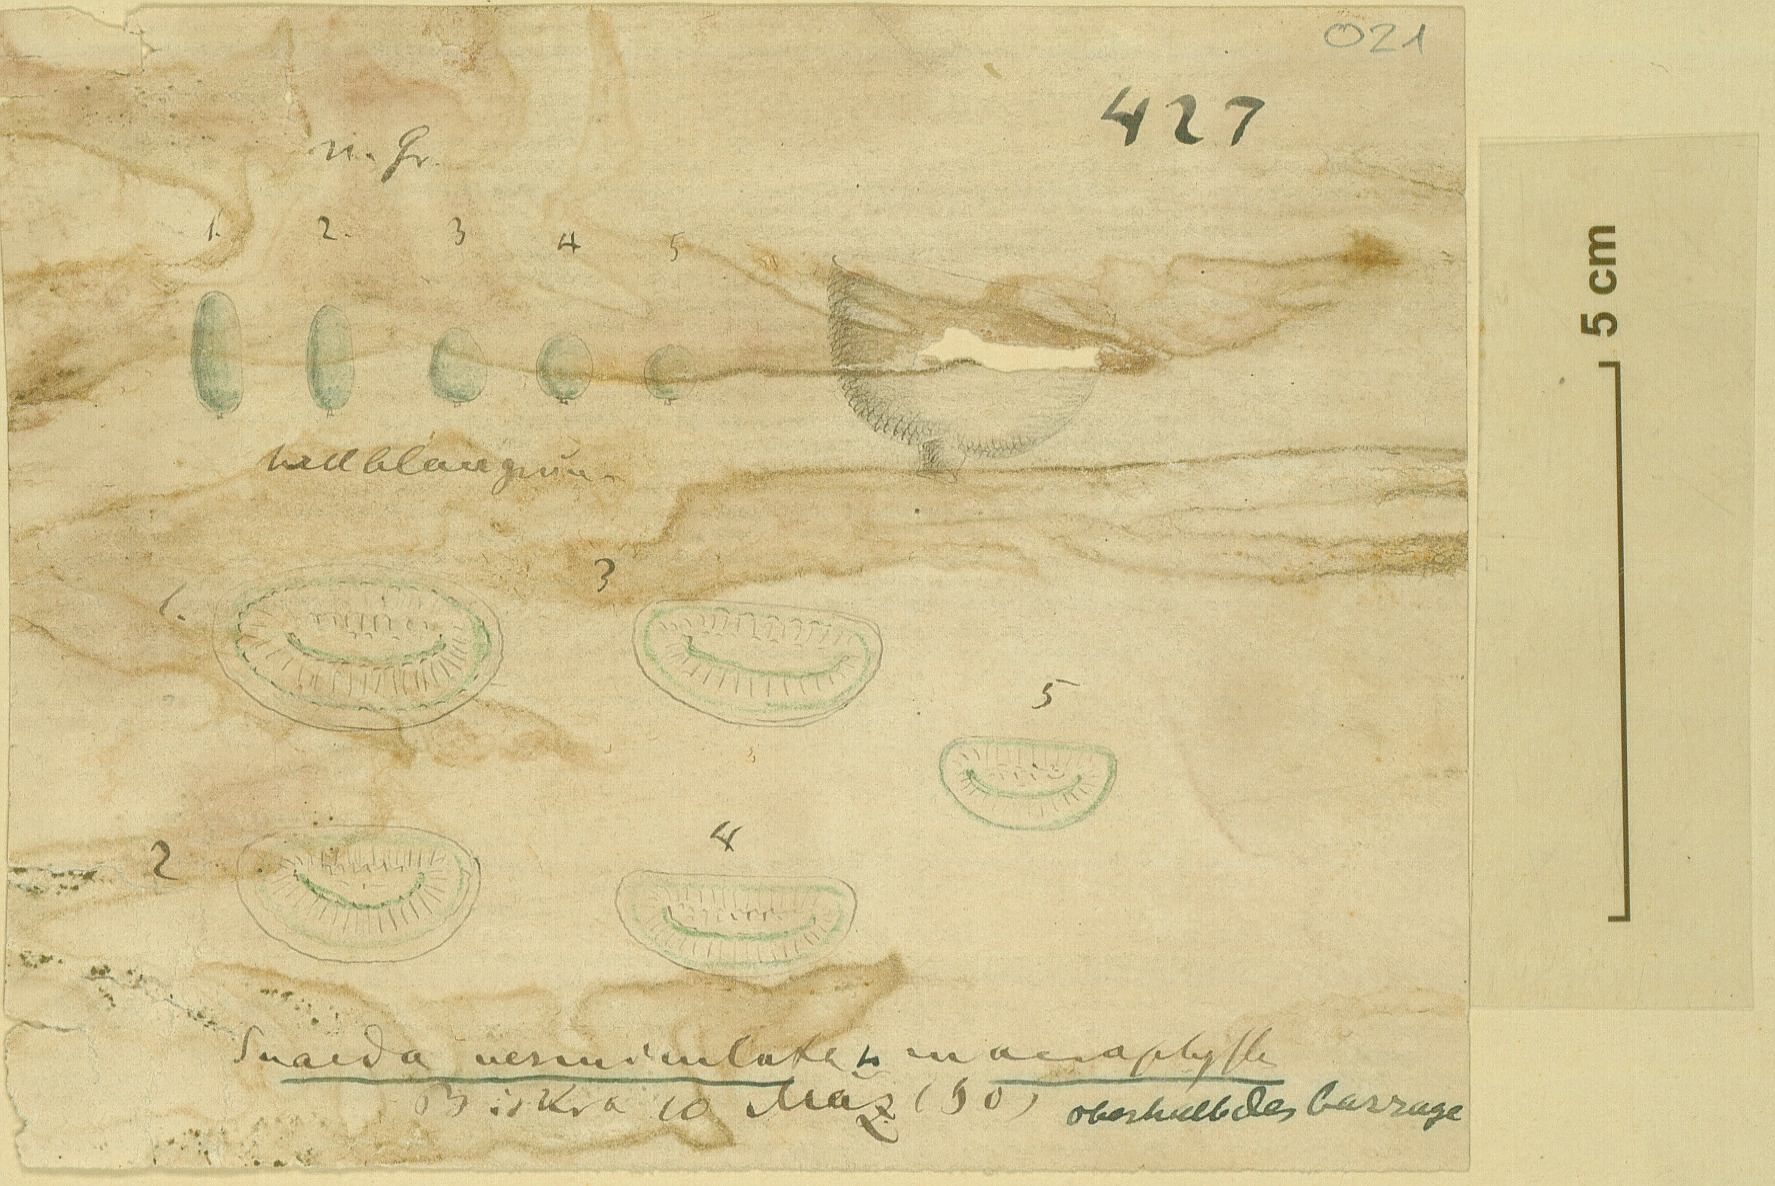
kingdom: Plantae
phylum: Tracheophyta
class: Magnoliopsida
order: Caryophyllales
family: Amaranthaceae
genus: Suaeda
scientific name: Suaeda vermiculata
